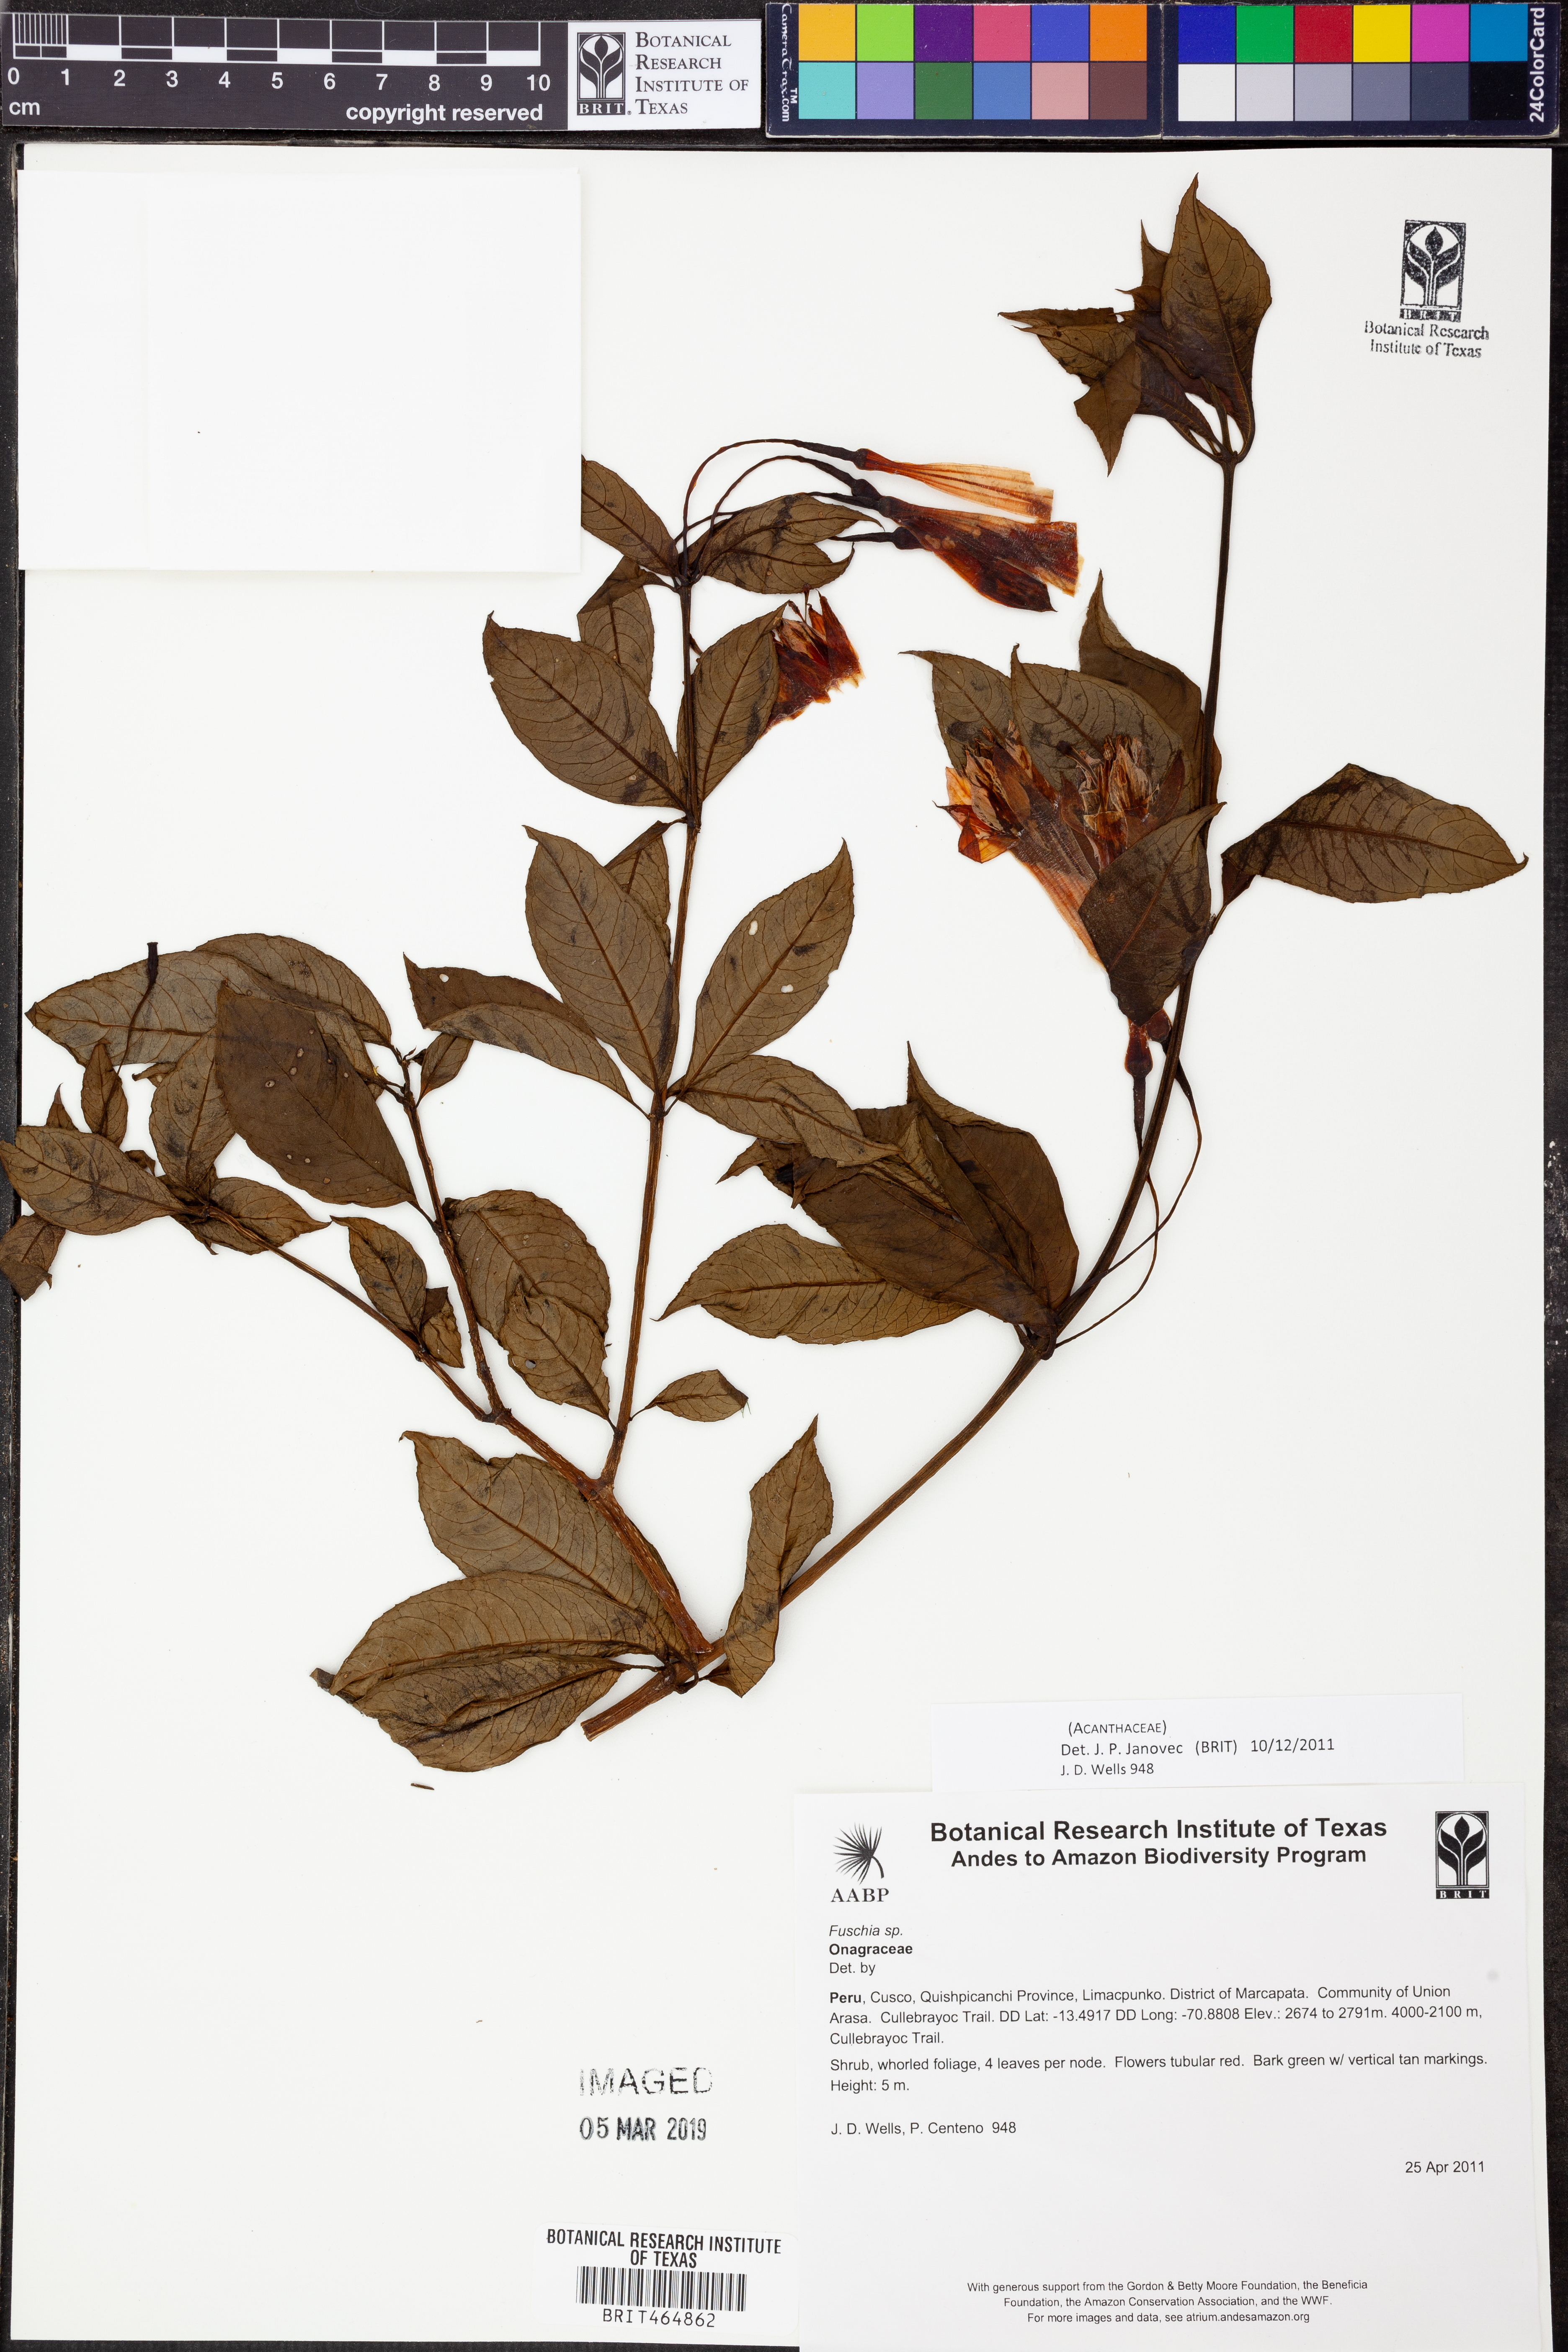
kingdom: Plantae
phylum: Tracheophyta
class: Magnoliopsida
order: Lamiales
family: Acanthaceae
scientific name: Acanthaceae
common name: Acanthaceae
